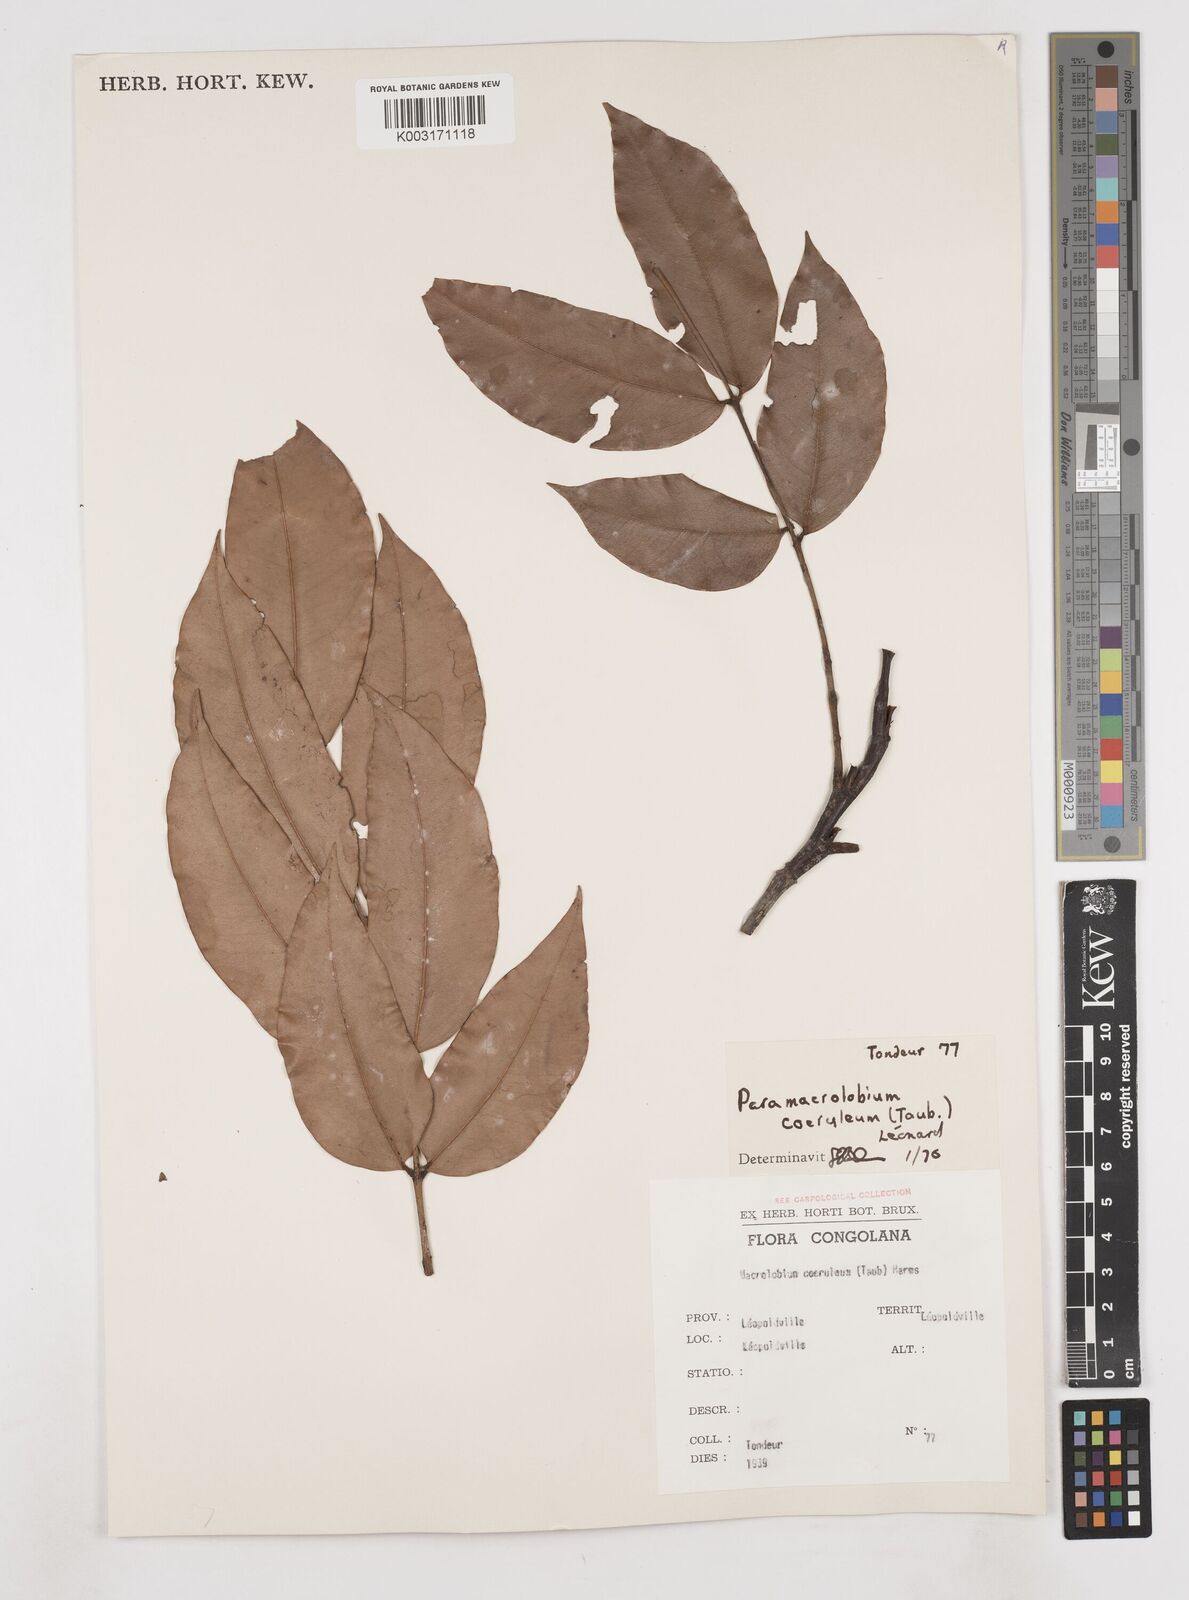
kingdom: Plantae
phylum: Tracheophyta
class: Magnoliopsida
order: Fabales
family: Fabaceae
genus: Paramacrolobium
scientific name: Paramacrolobium coeruleum
